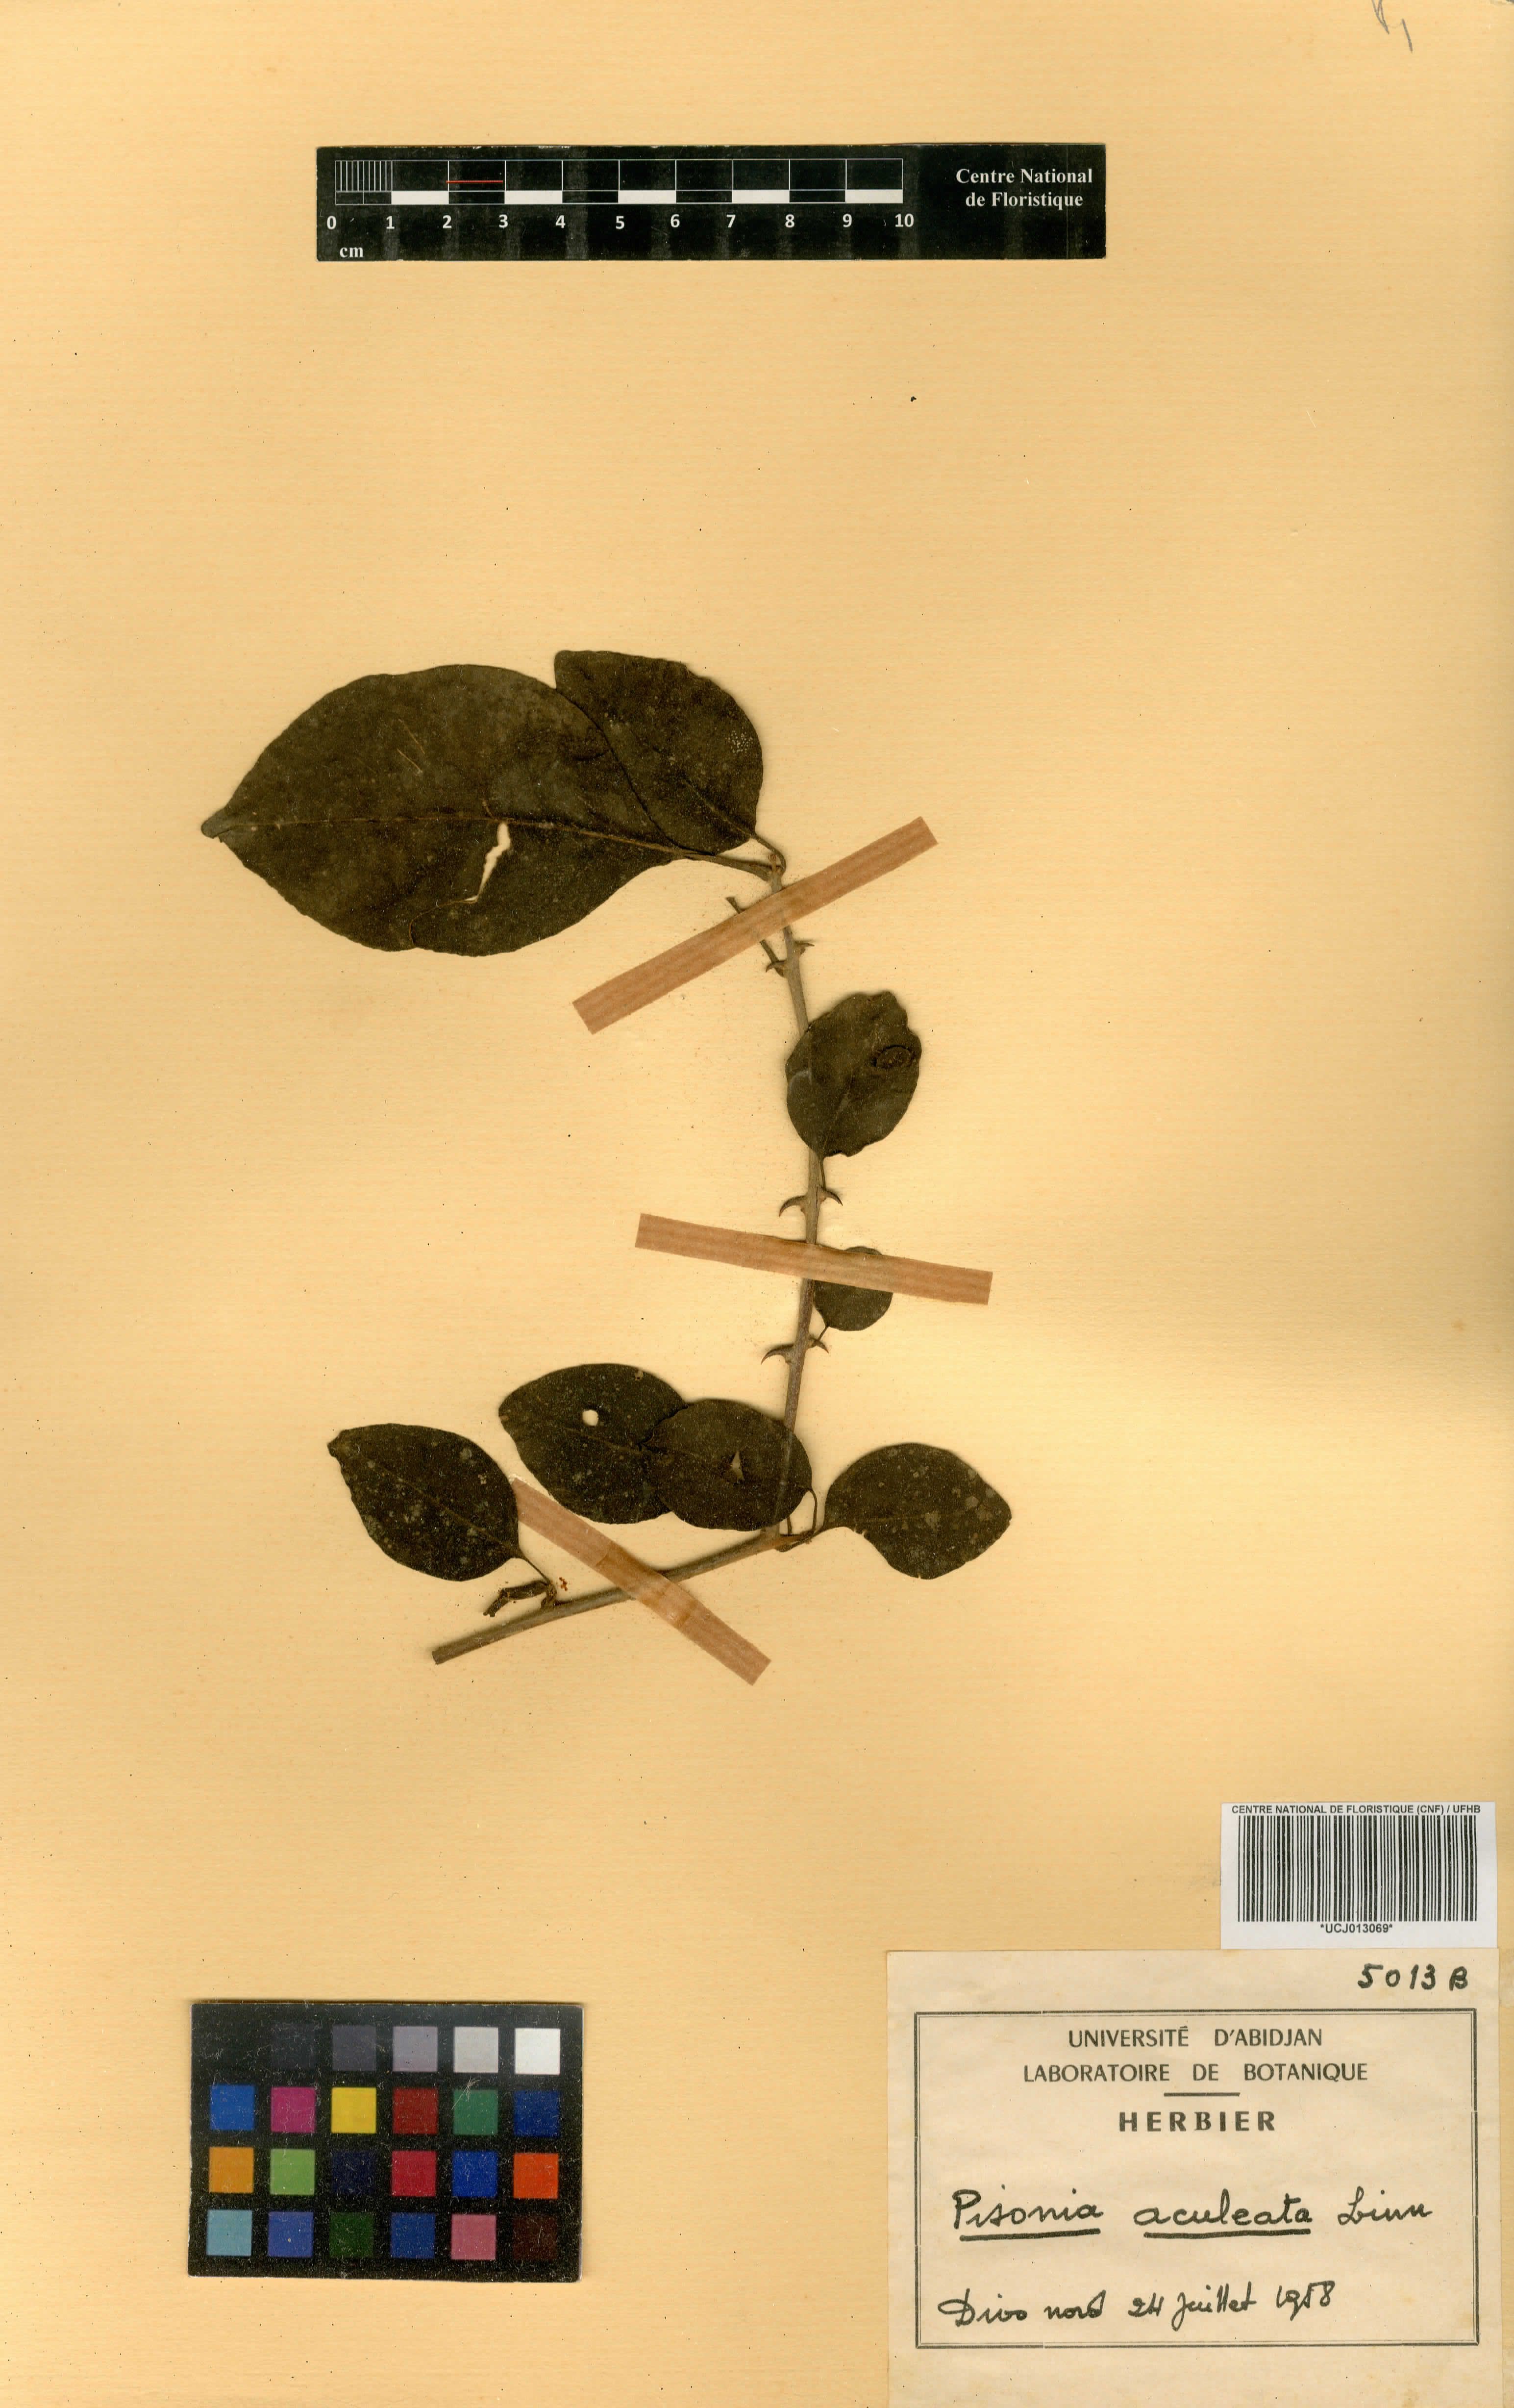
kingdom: Plantae
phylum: Tracheophyta
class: Magnoliopsida
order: Caryophyllales
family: Nyctaginaceae
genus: Pisonia
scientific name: Pisonia aculeata
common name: Cockspur vine
